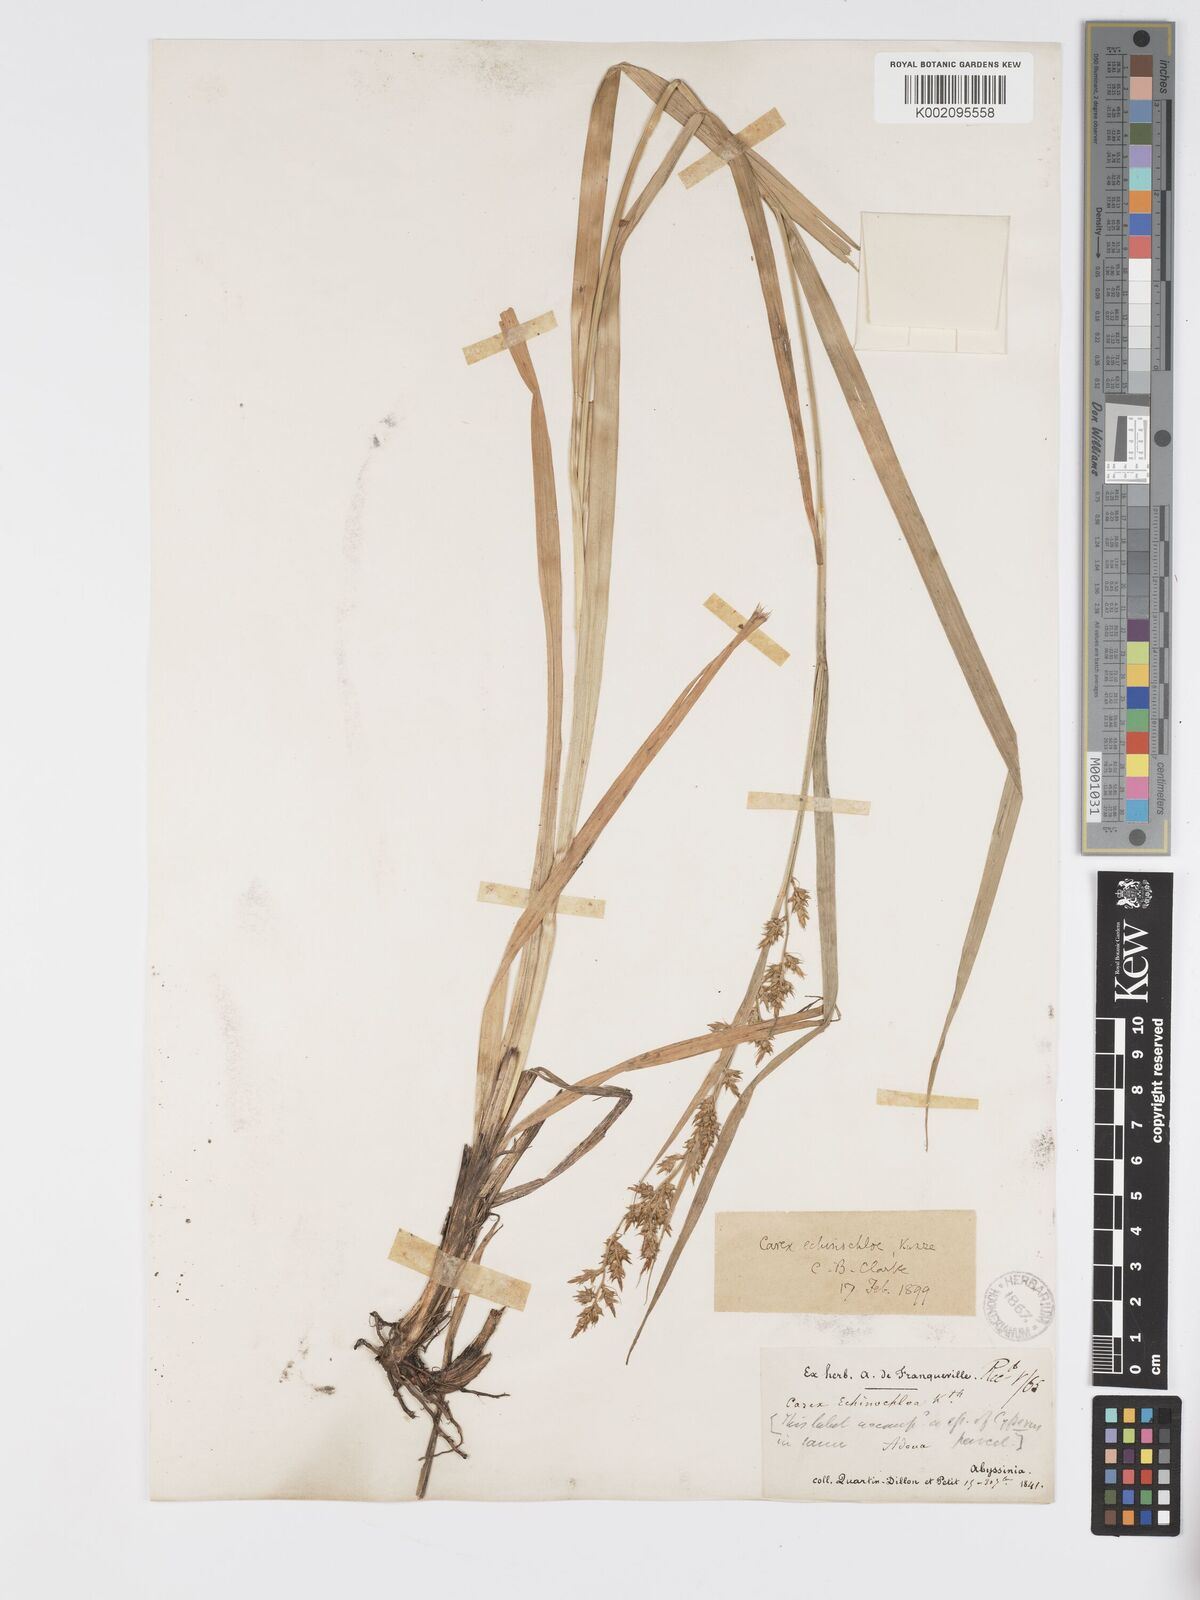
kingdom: Plantae
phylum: Tracheophyta
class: Liliopsida
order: Poales
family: Cyperaceae
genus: Carex
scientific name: Carex echinochloe
